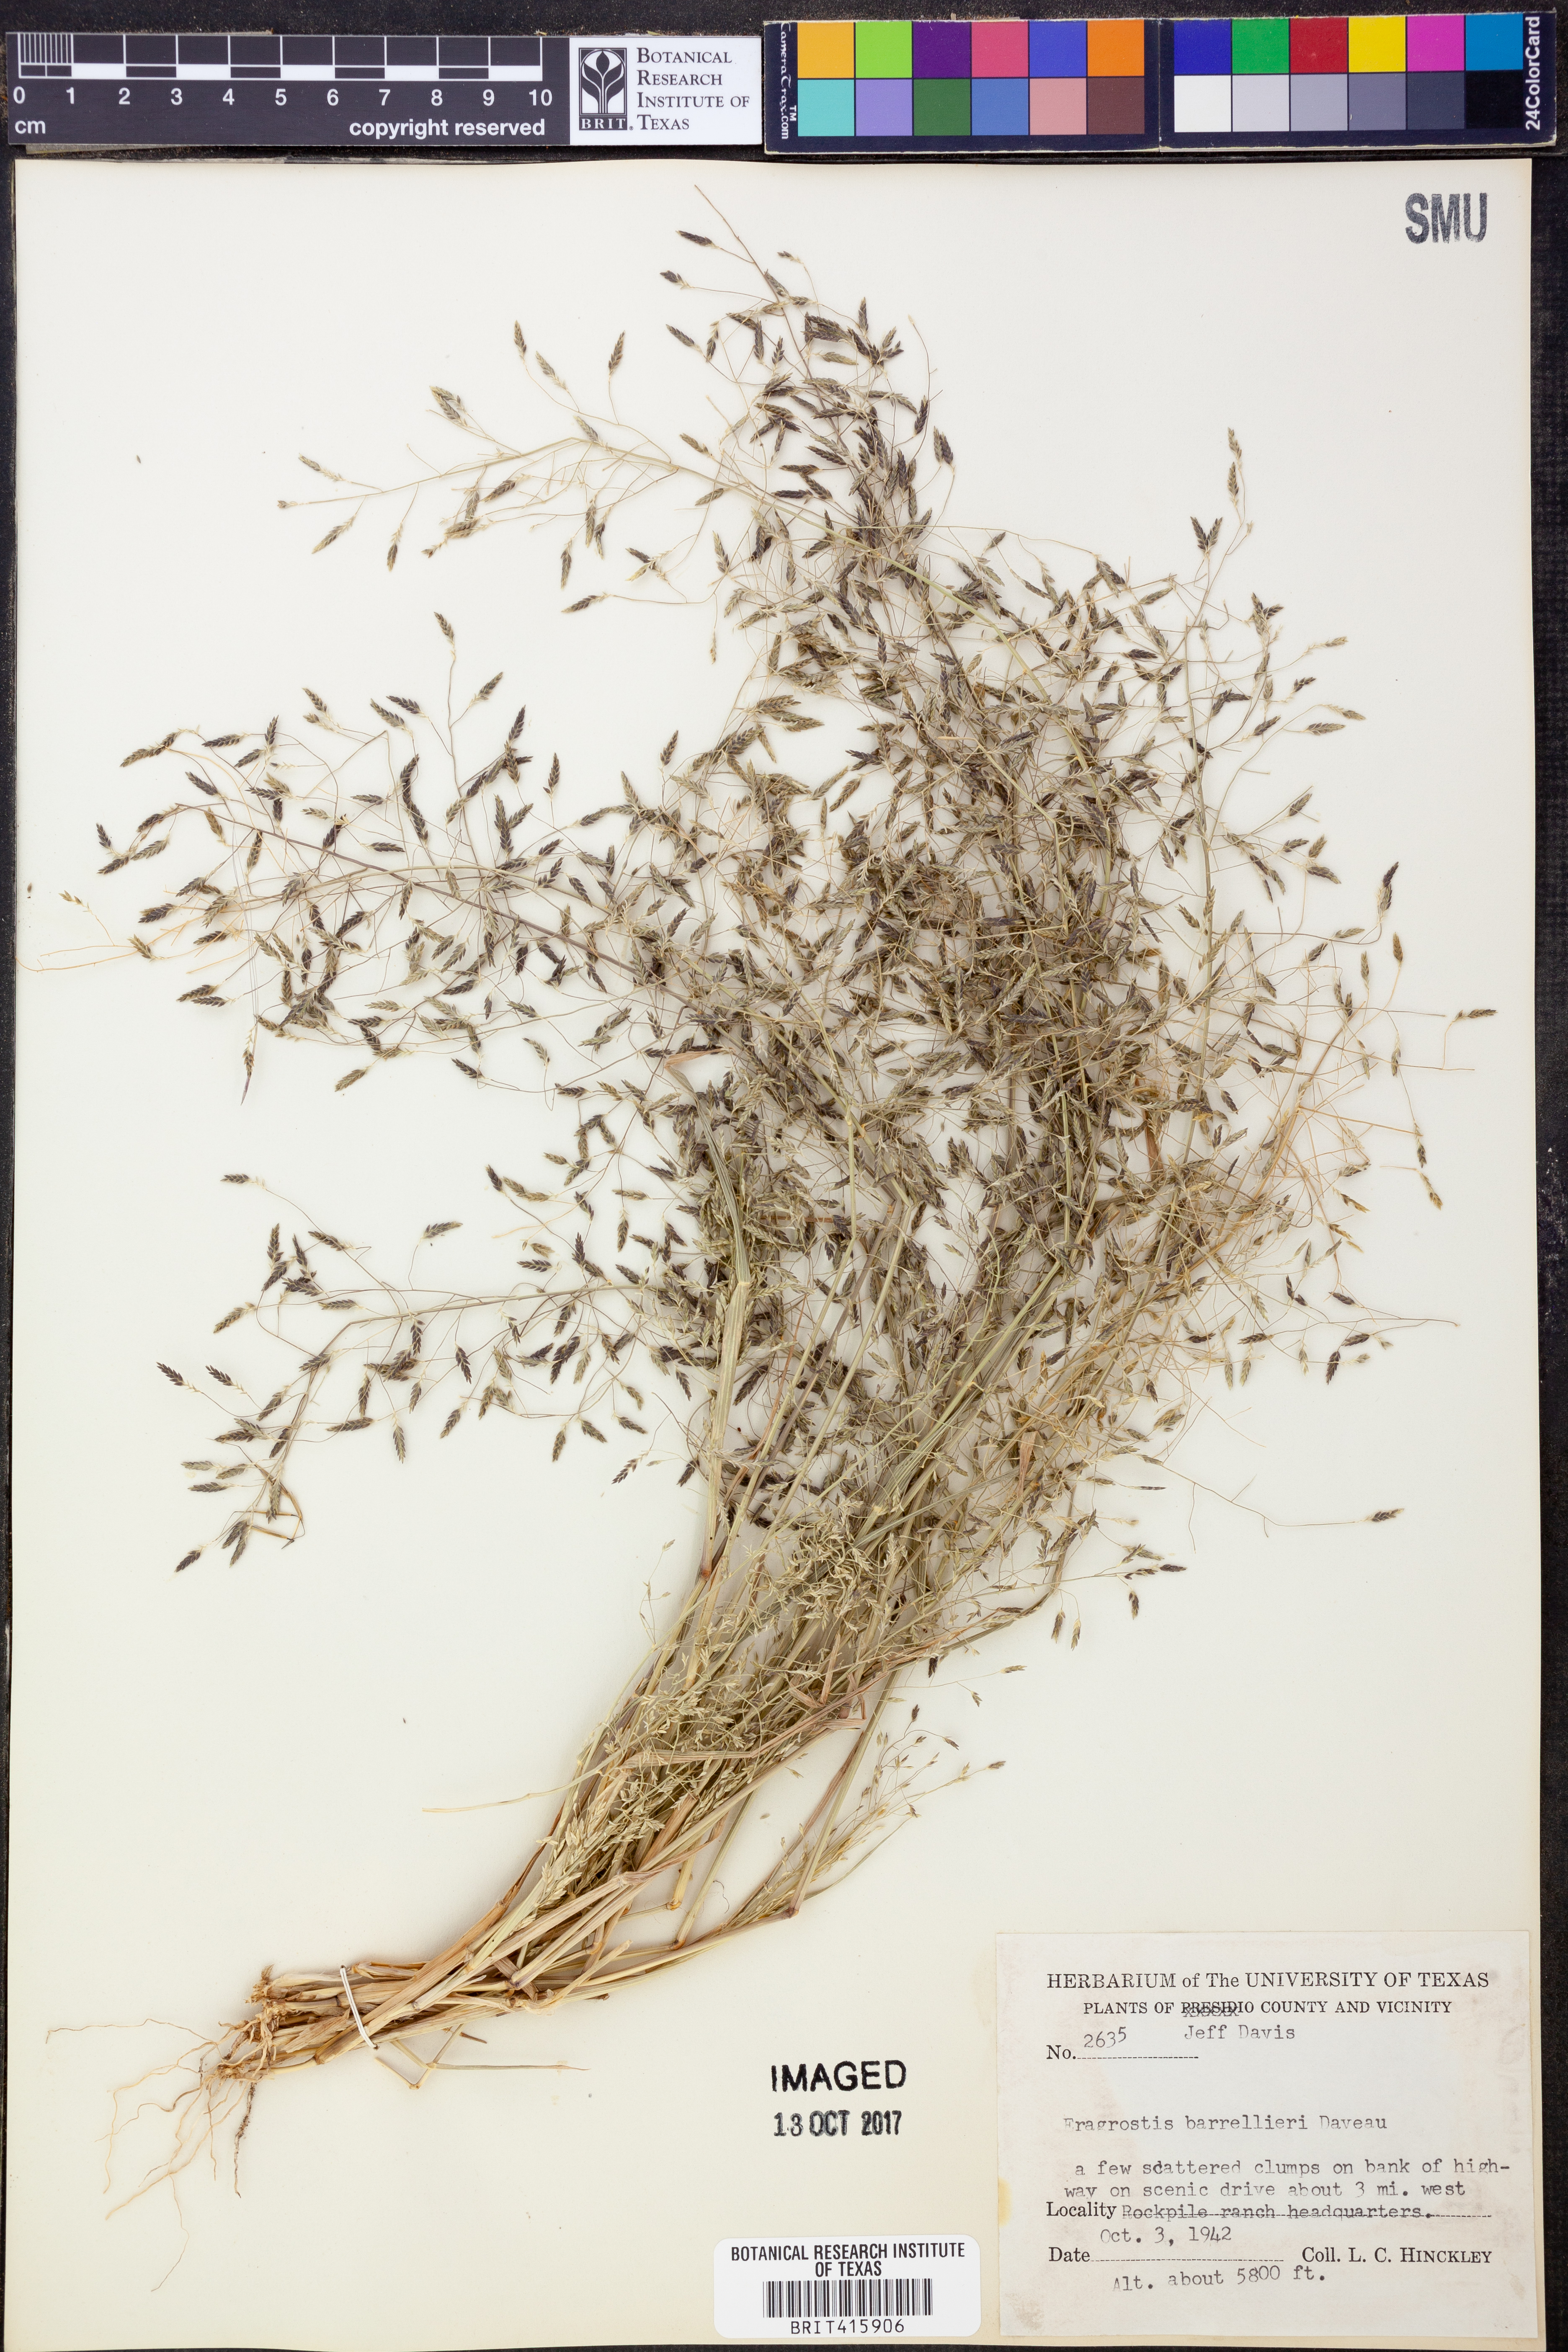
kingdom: Plantae
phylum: Tracheophyta
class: Liliopsida
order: Poales
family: Poaceae
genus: Eragrostis
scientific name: Eragrostis barrelieri
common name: Mediterranean lovegrass
